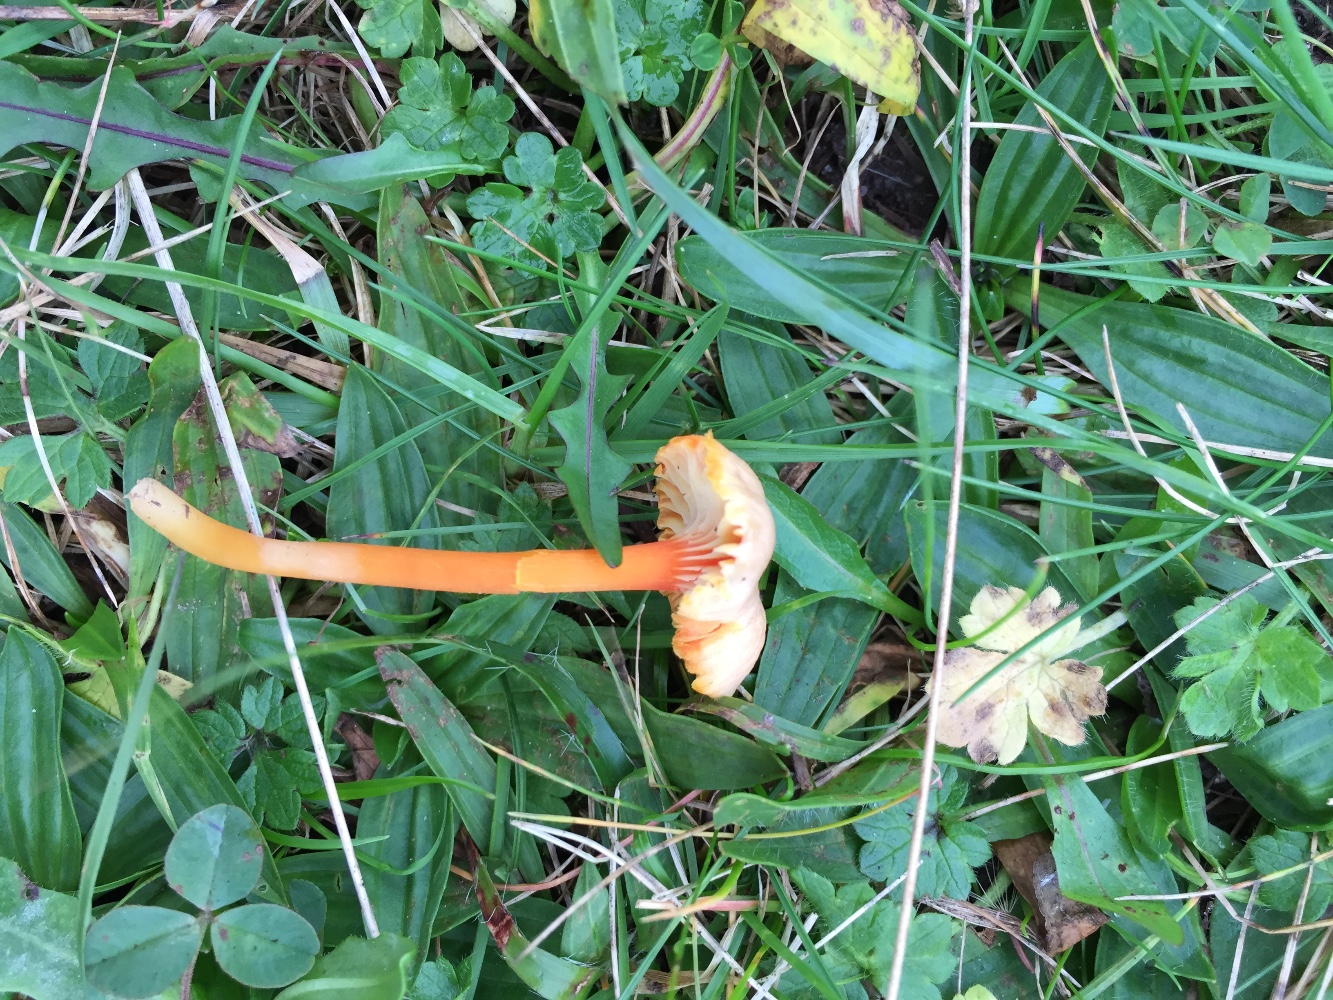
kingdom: Fungi
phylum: Basidiomycota
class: Agaricomycetes
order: Agaricales
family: Hygrophoraceae
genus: Hygrocybe
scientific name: Hygrocybe cantharellus
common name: kantarel-vokshat
